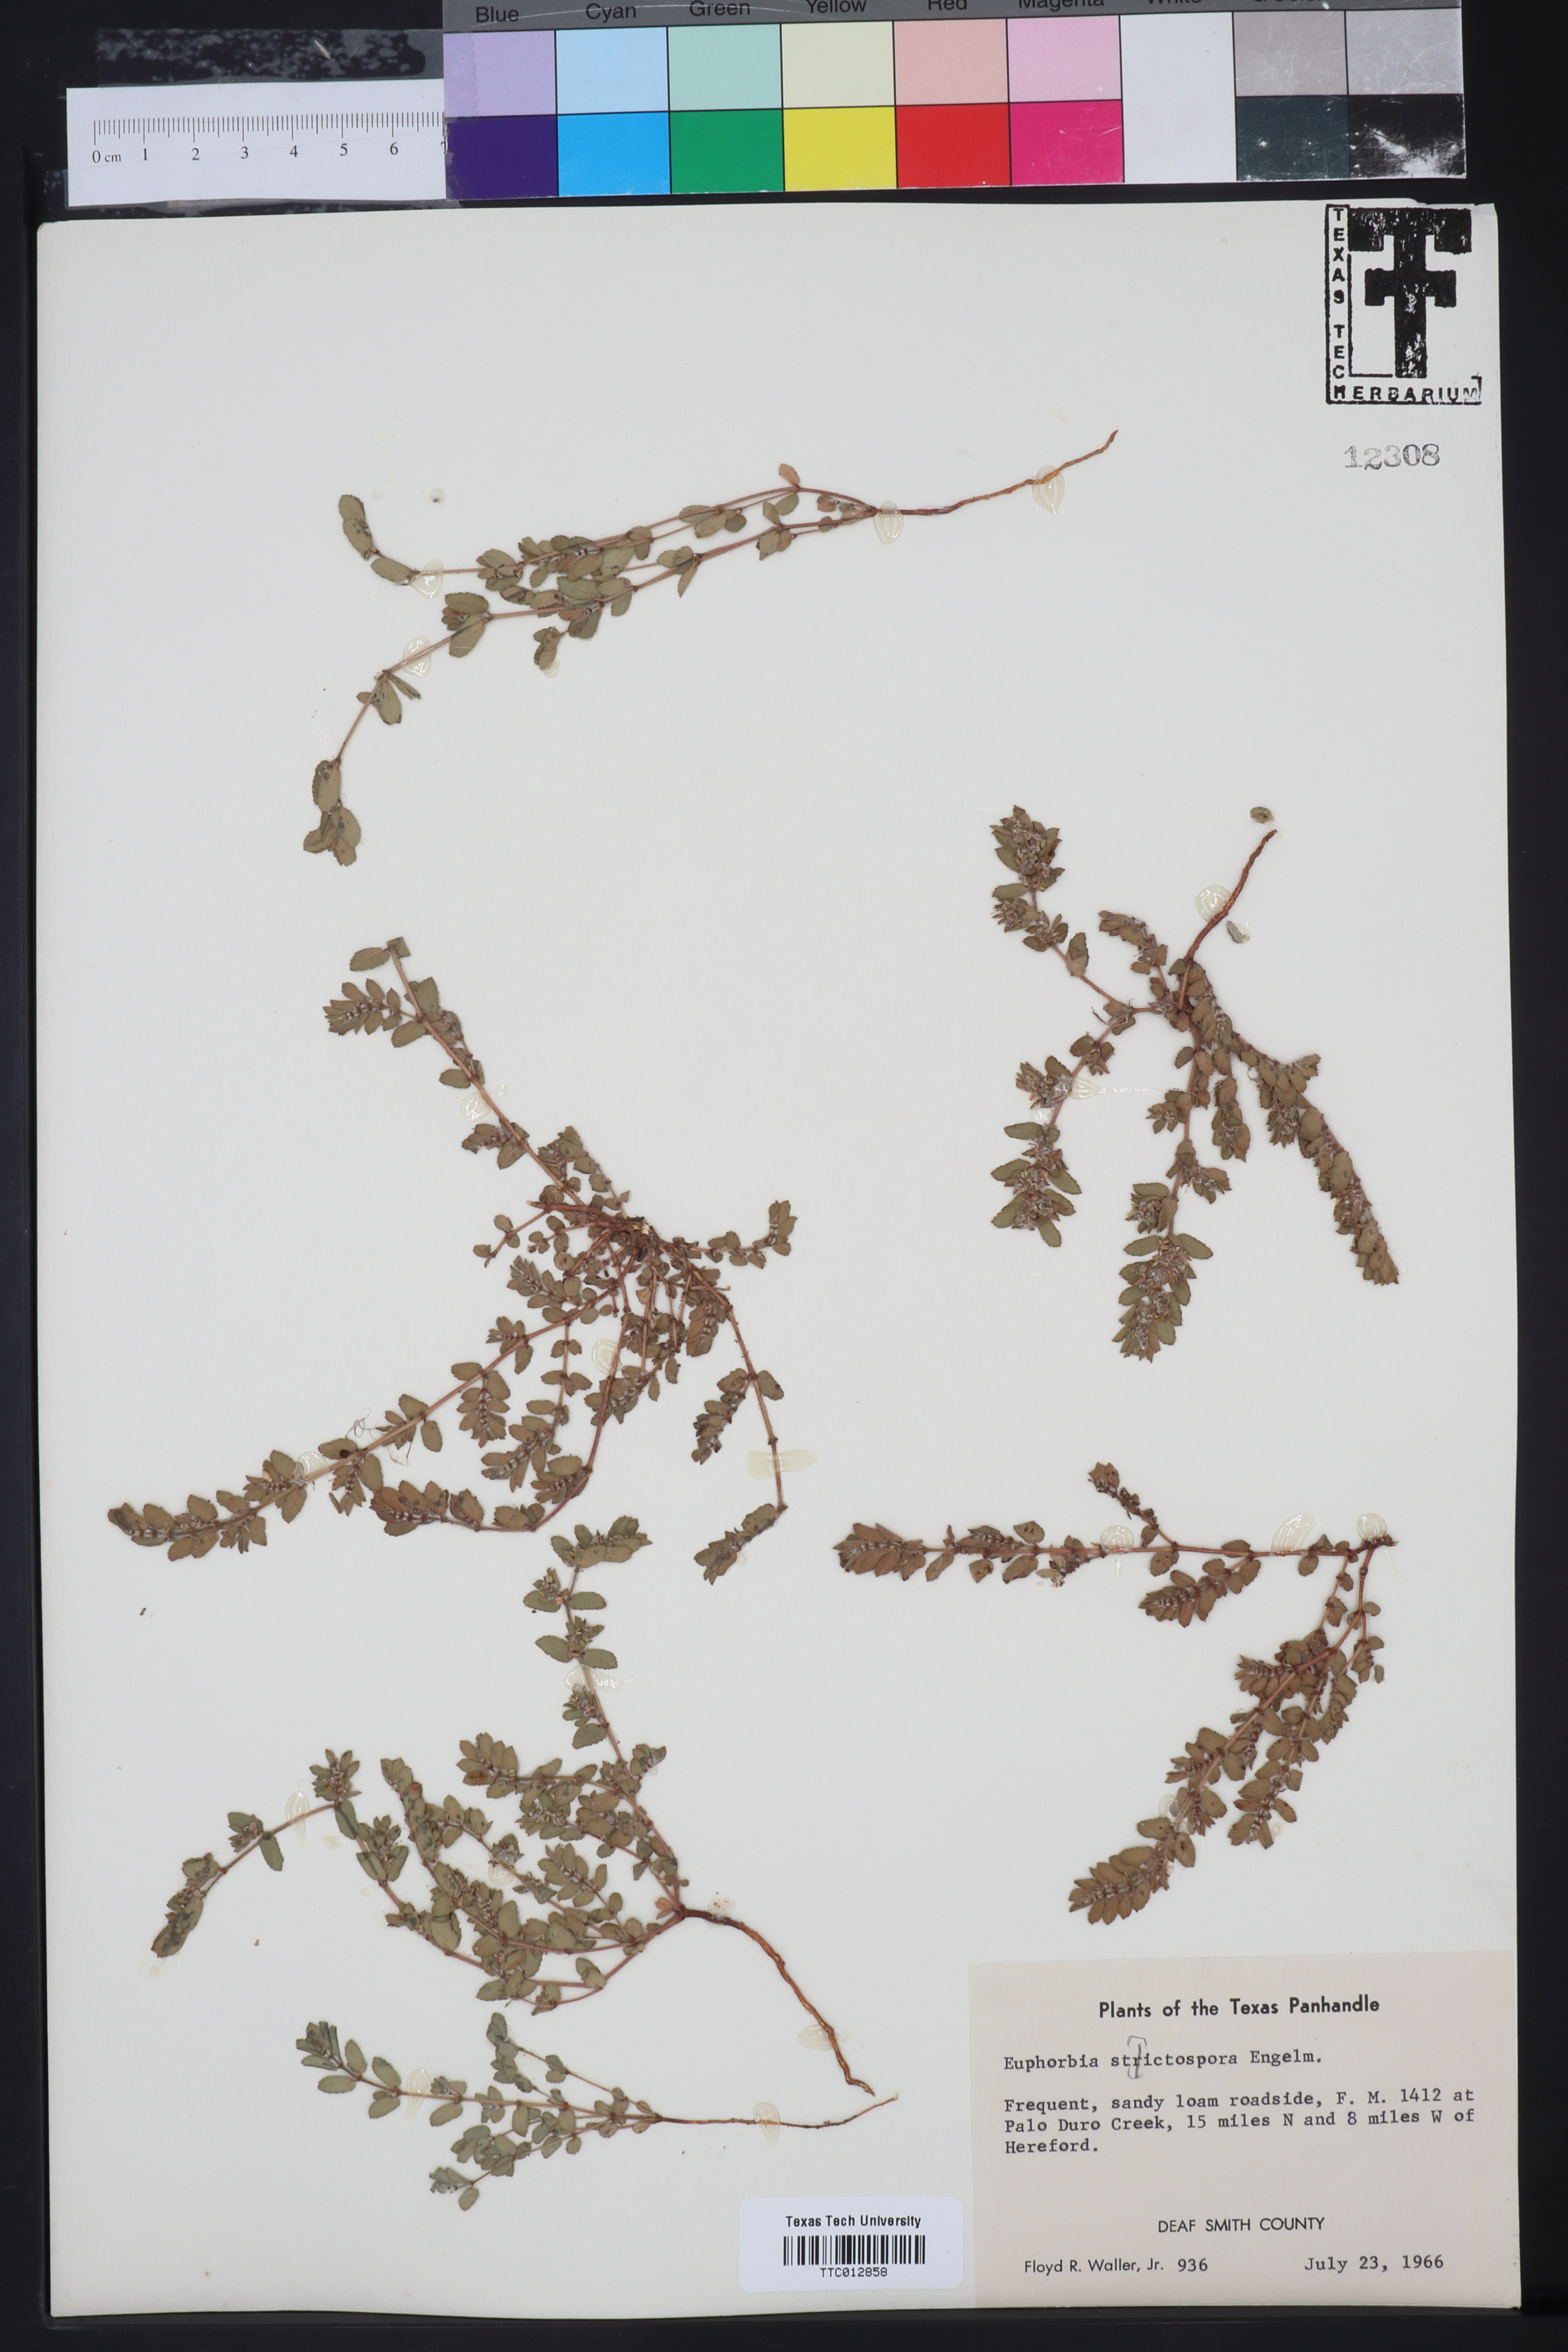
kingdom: Plantae
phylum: Tracheophyta
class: Magnoliopsida
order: Malpighiales
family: Euphorbiaceae
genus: Euphorbia
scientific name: Euphorbia stictospora
